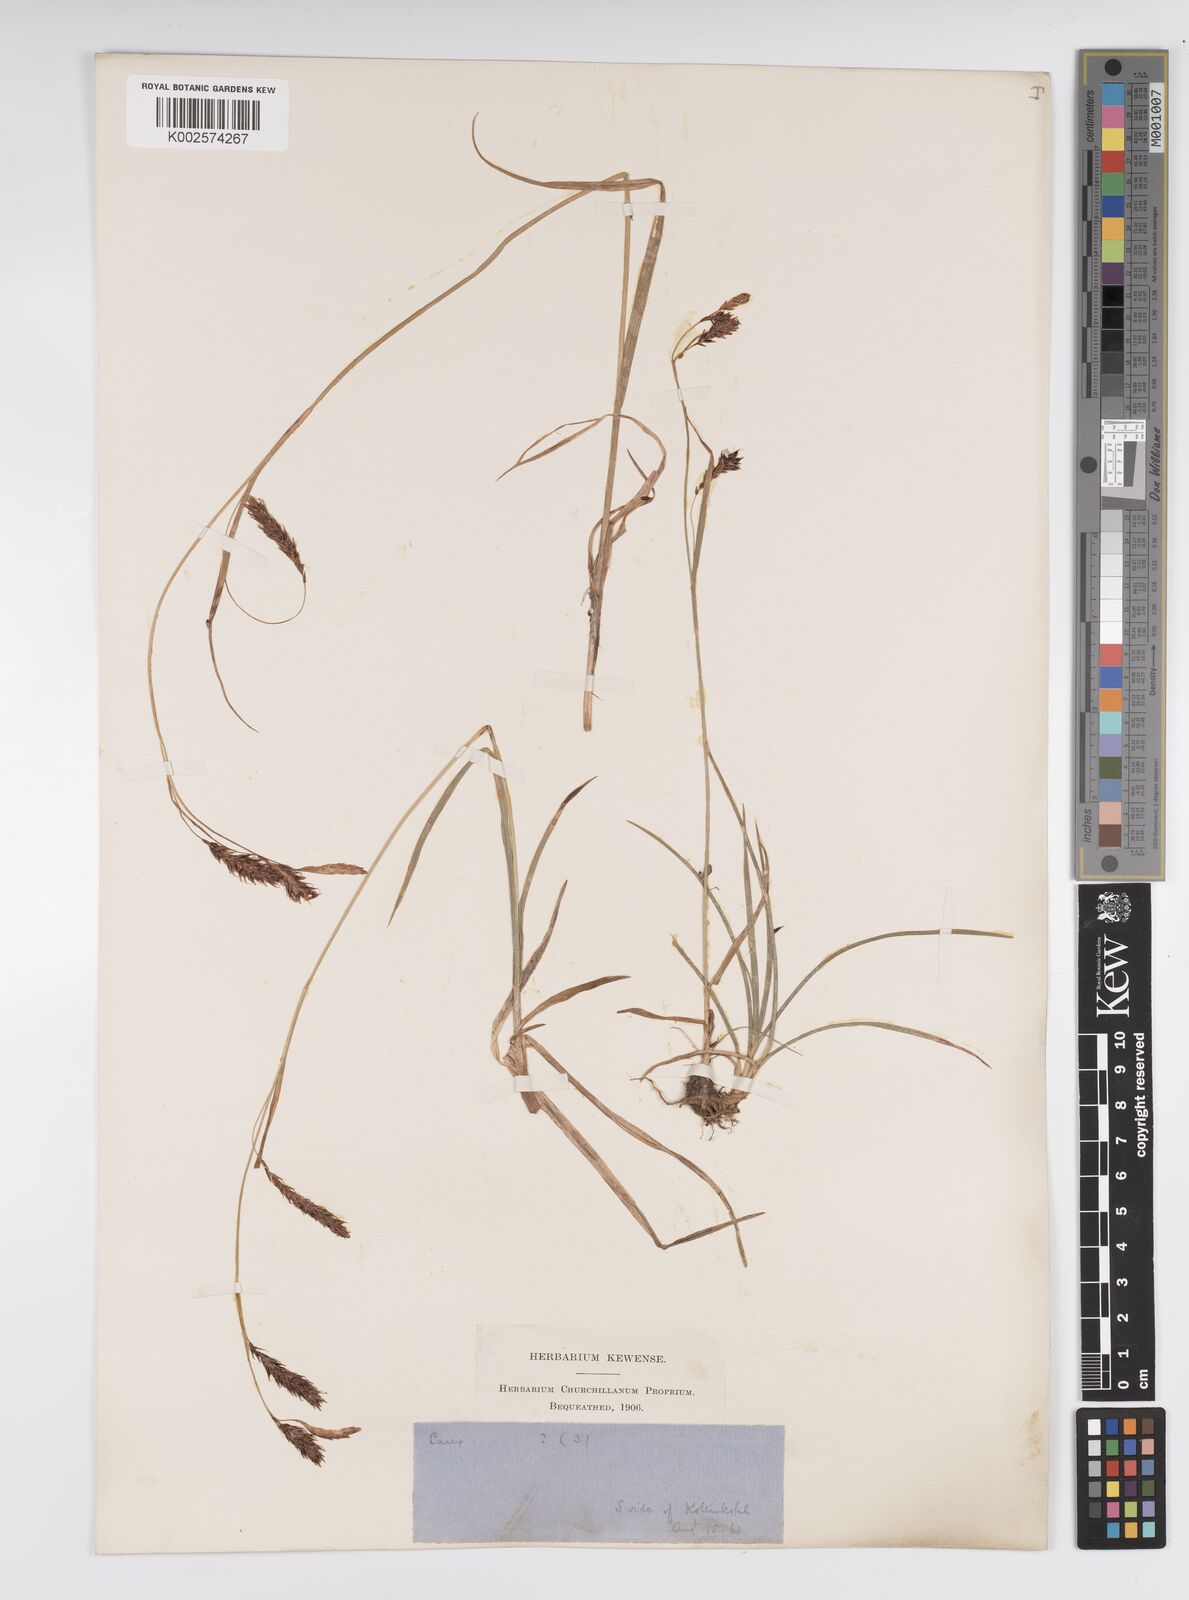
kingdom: Plantae
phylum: Tracheophyta
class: Liliopsida
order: Poales
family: Cyperaceae
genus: Carex
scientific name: Carex frigida
